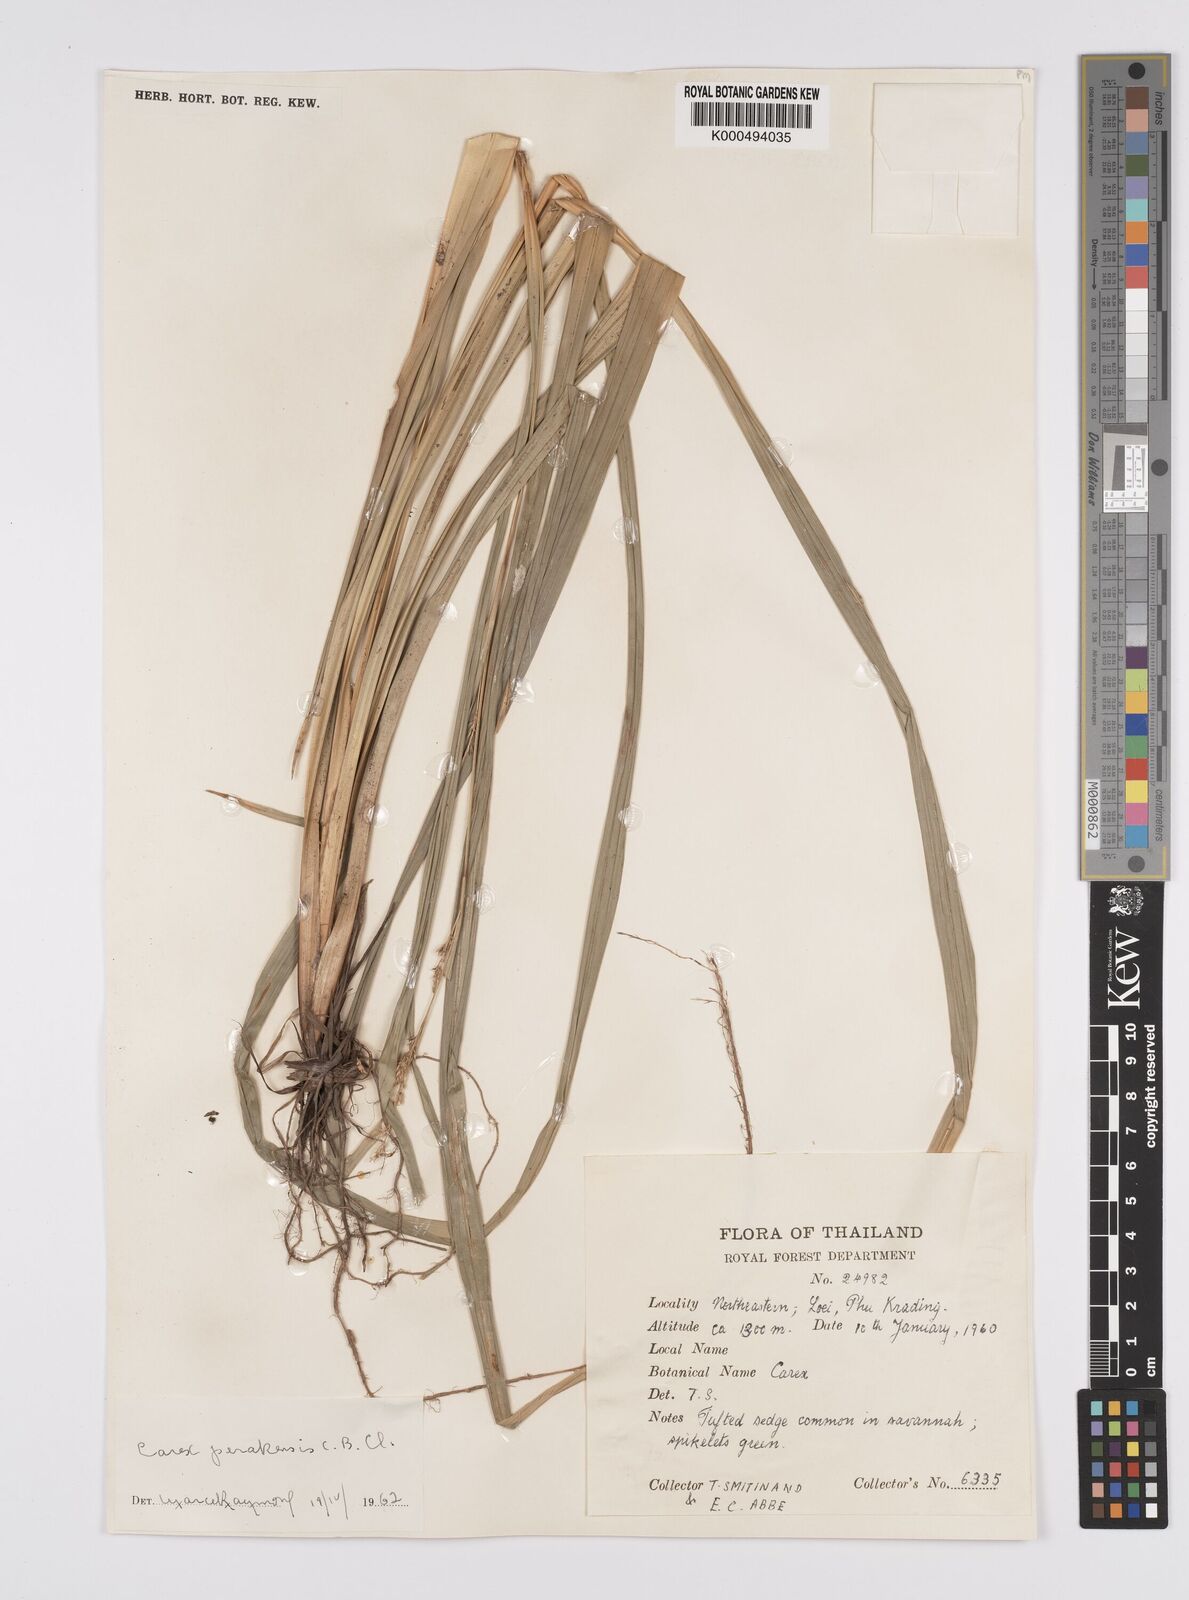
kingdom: Plantae
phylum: Tracheophyta
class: Liliopsida
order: Poales
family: Cyperaceae
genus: Carex
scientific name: Carex perakensis
